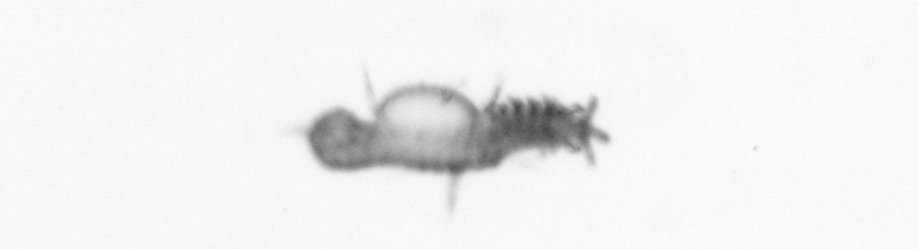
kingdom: Animalia
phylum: Annelida
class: Polychaeta
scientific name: Polychaeta
